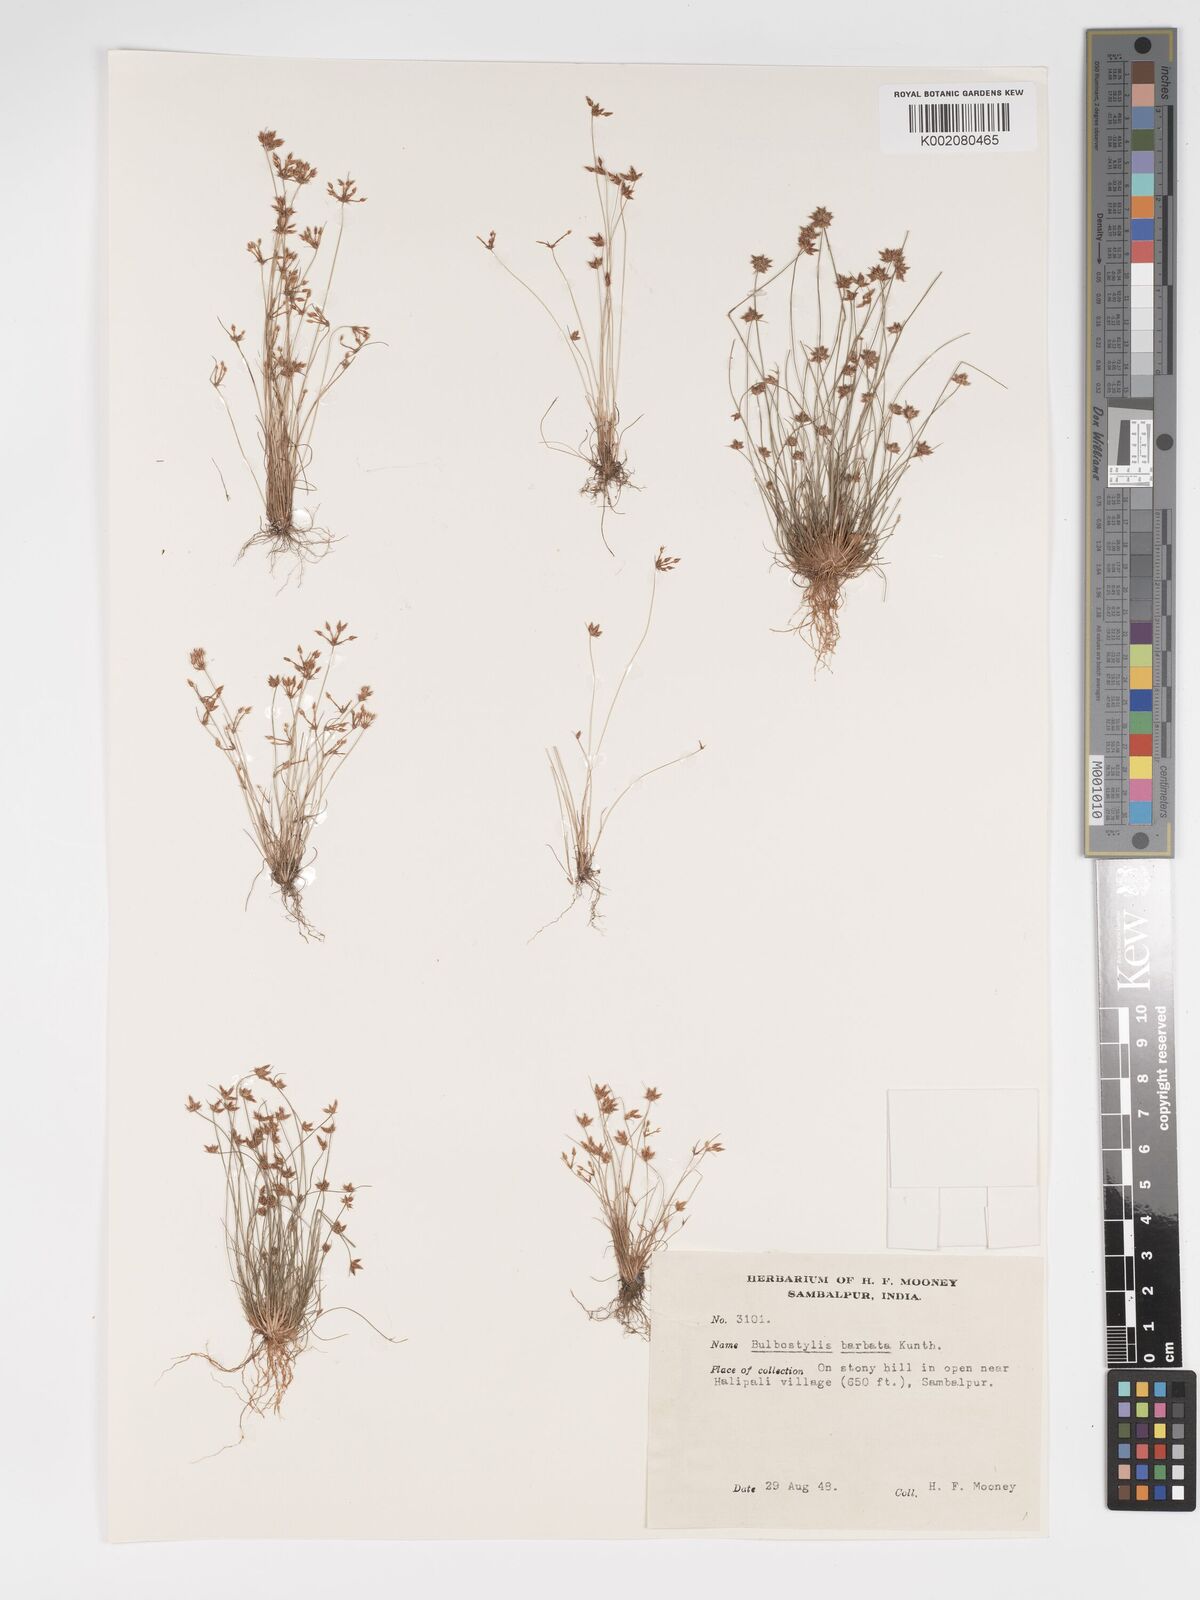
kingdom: Plantae
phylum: Tracheophyta
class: Liliopsida
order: Poales
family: Cyperaceae
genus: Bulbostylis
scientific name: Bulbostylis barbata
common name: Watergrass
